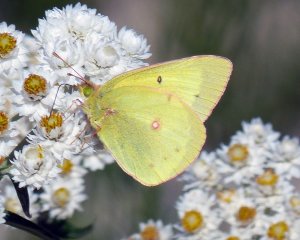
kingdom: Animalia
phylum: Arthropoda
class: Insecta
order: Lepidoptera
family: Pieridae
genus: Colias
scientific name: Colias philodice
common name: Clouded Sulphur
